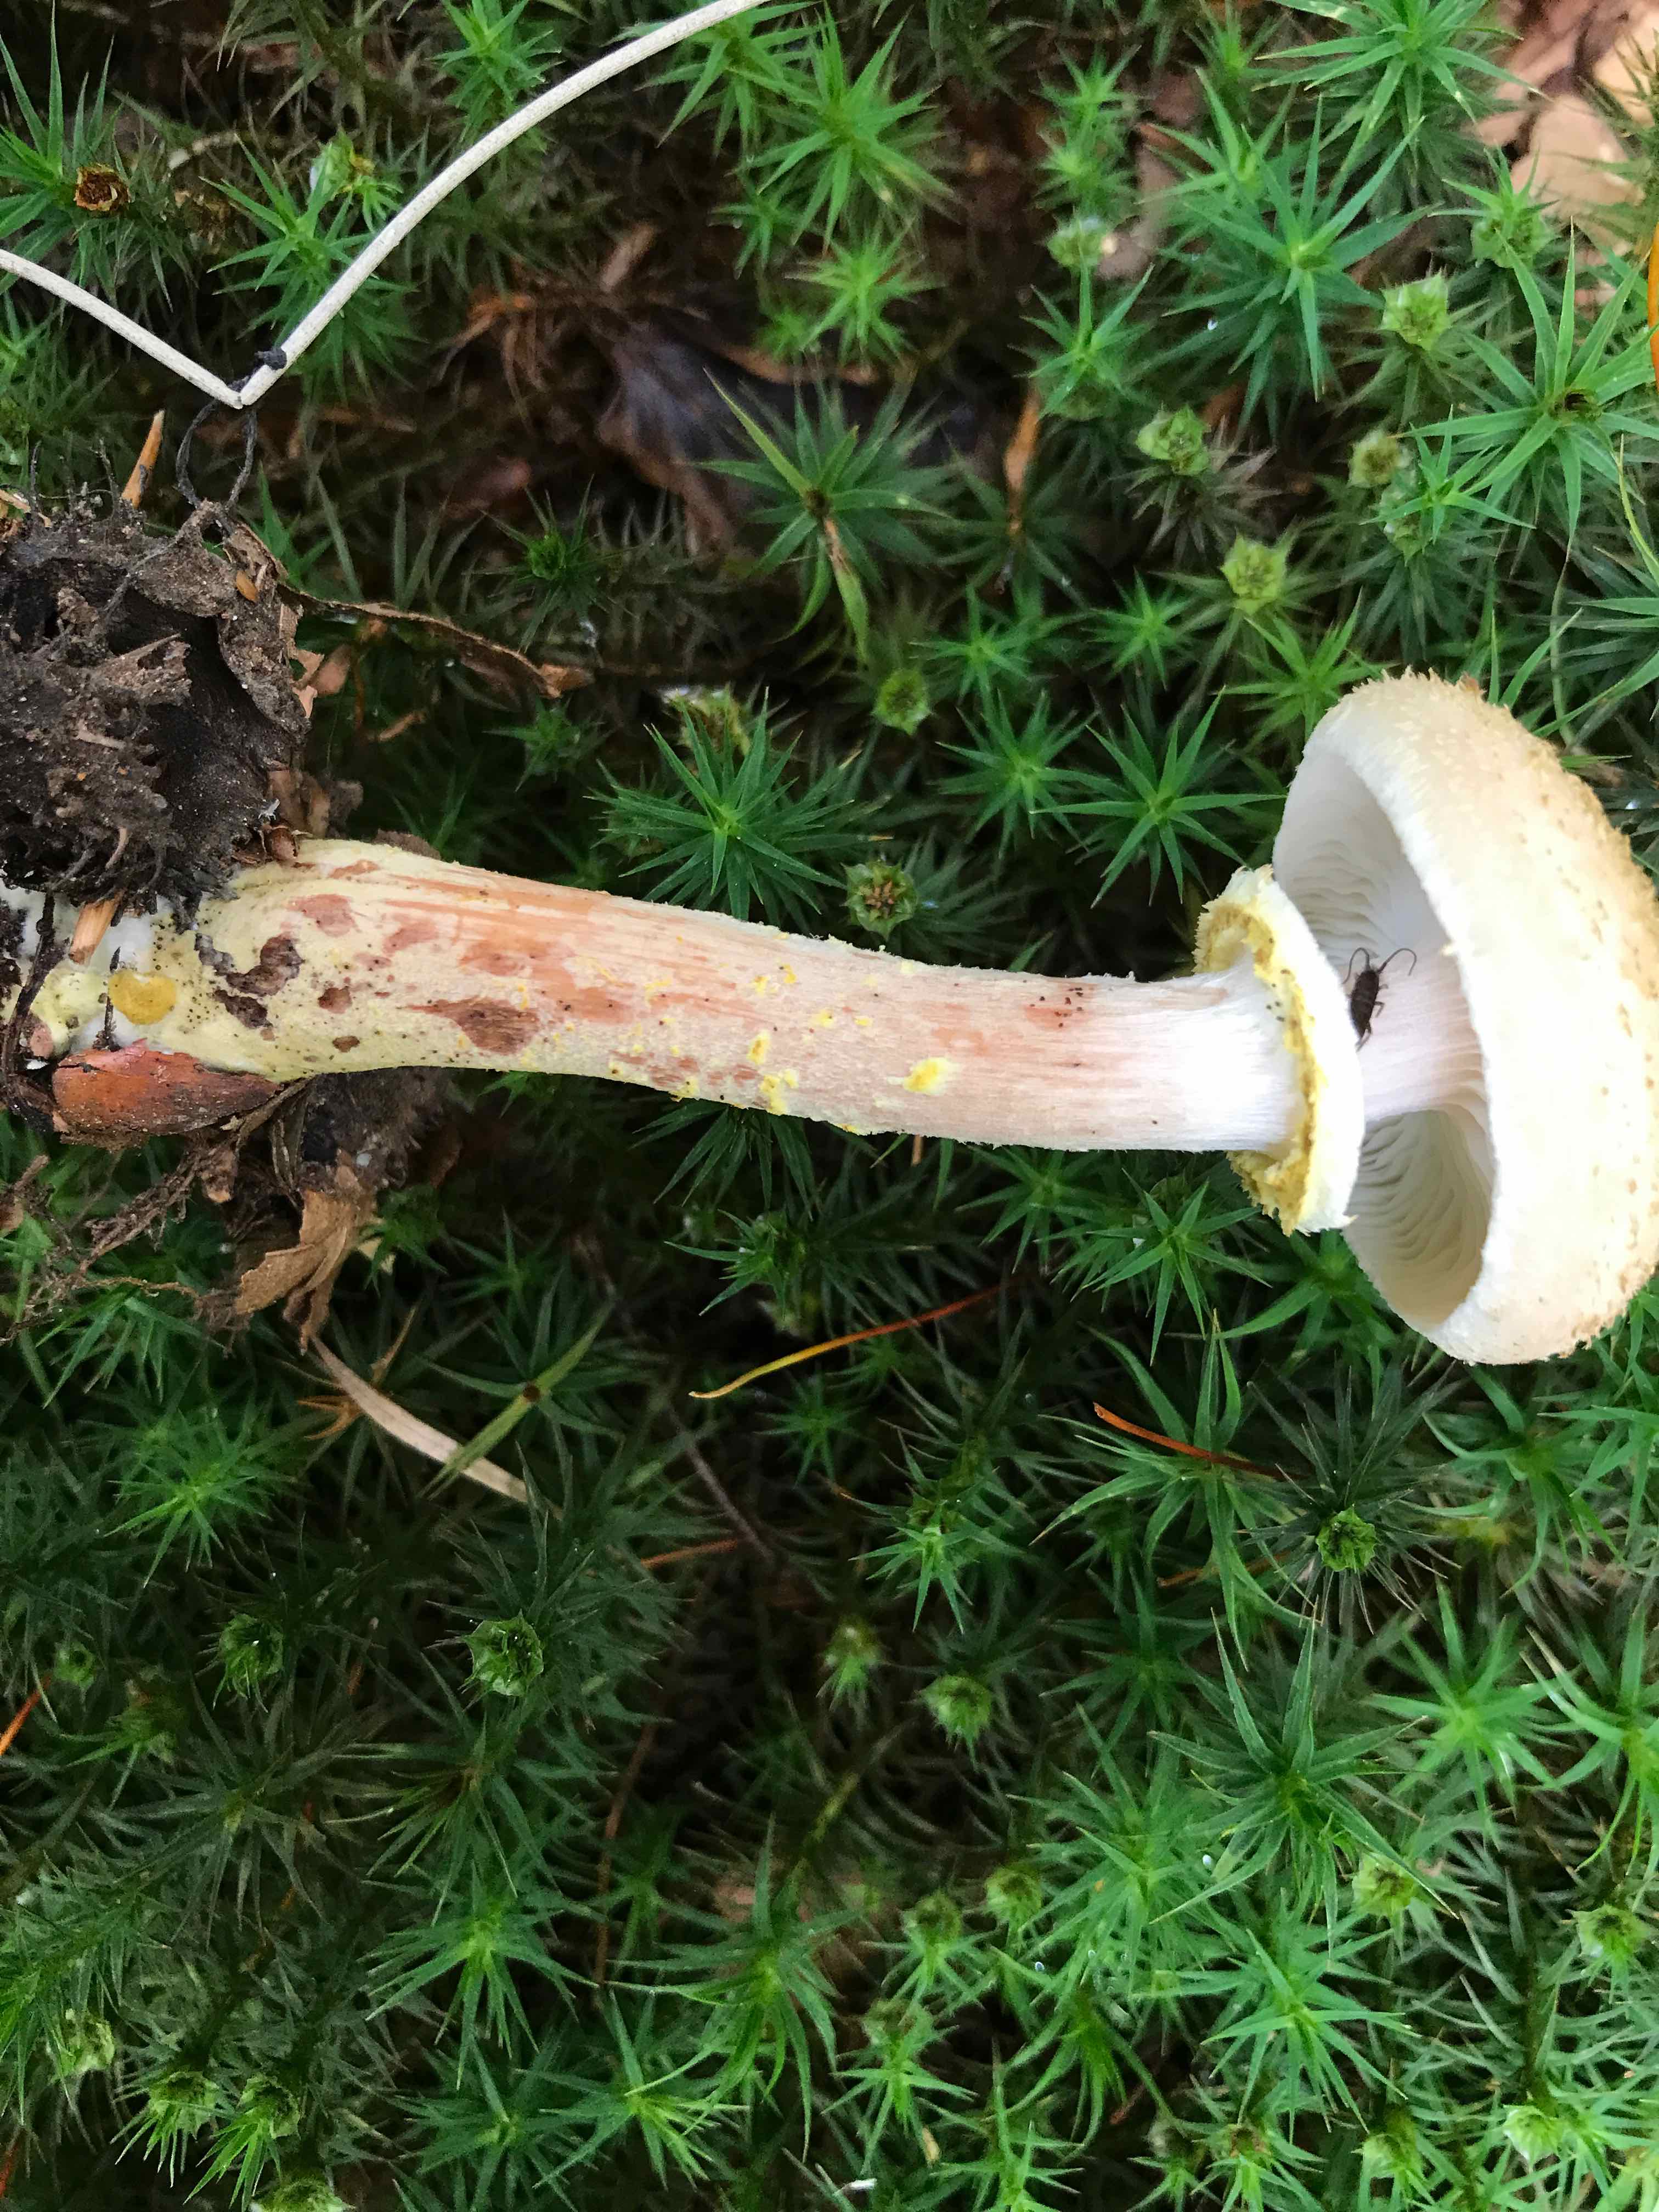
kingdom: Fungi
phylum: Basidiomycota
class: Agaricomycetes
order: Agaricales
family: Physalacriaceae
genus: Armillaria
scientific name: Armillaria lutea
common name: køllestokket honningsvamp
